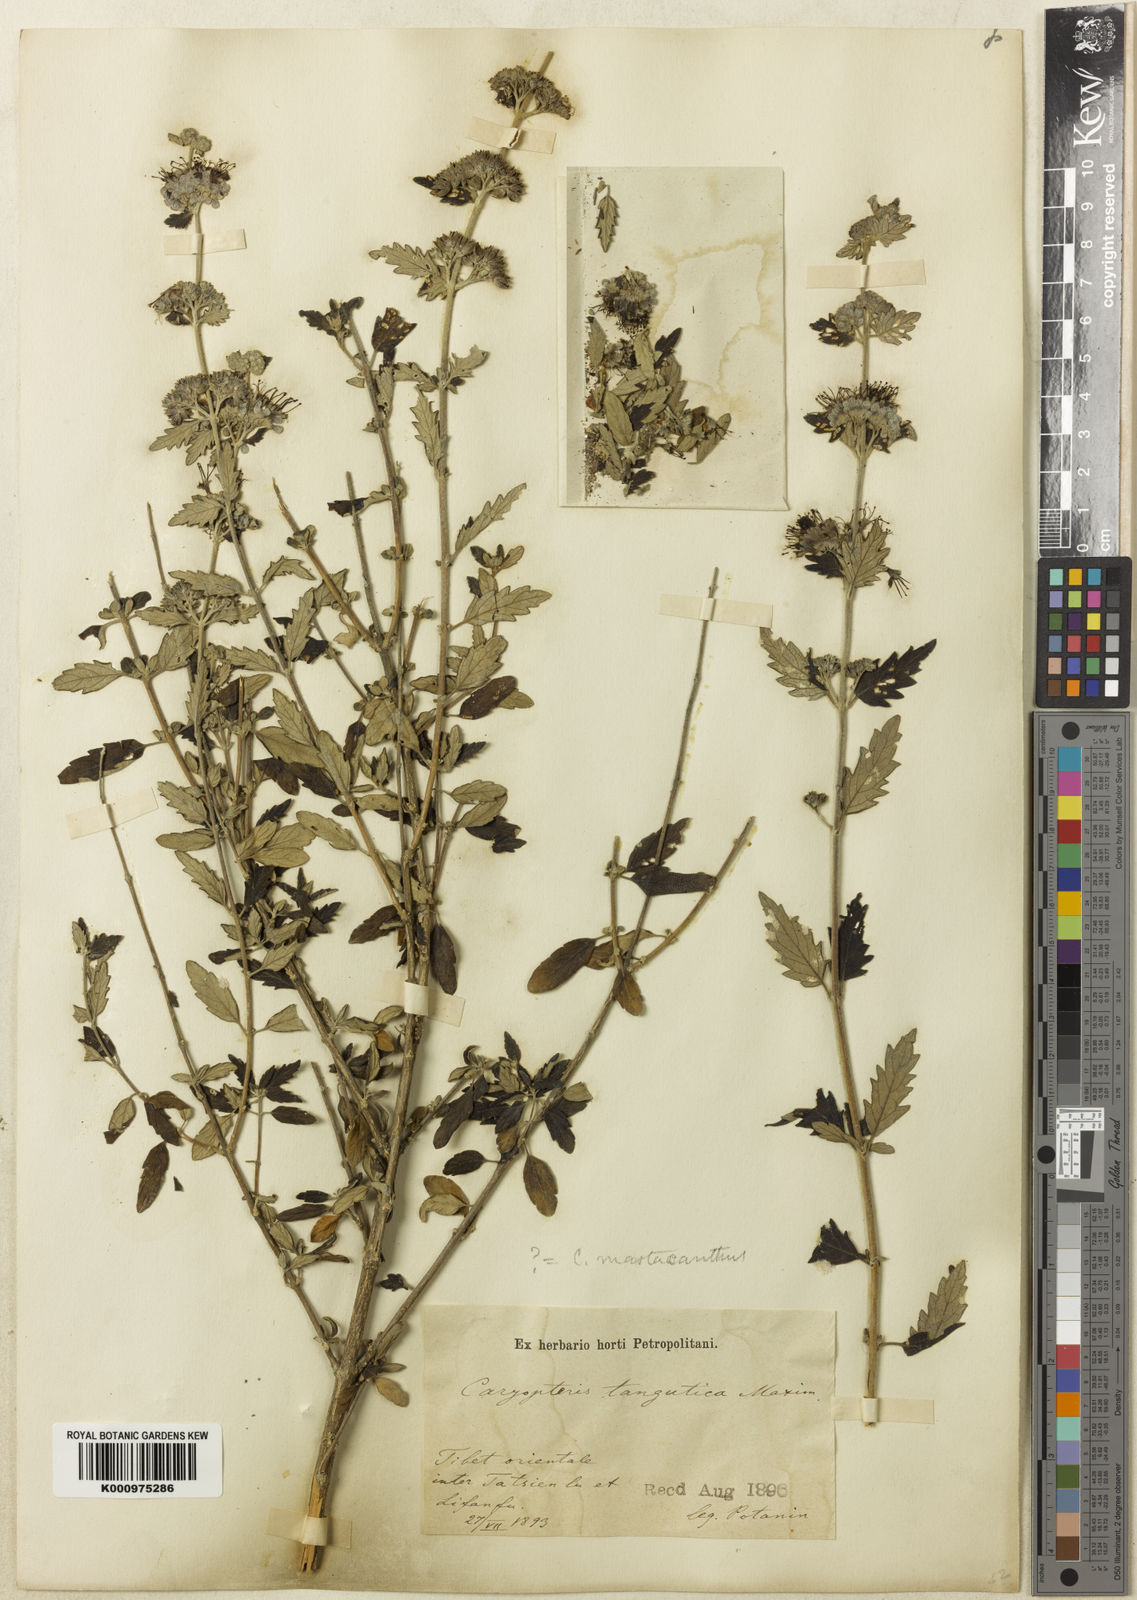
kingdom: Plantae
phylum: Tracheophyta
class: Magnoliopsida
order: Lamiales
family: Lamiaceae
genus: Caryopteris
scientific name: Caryopteris incana
